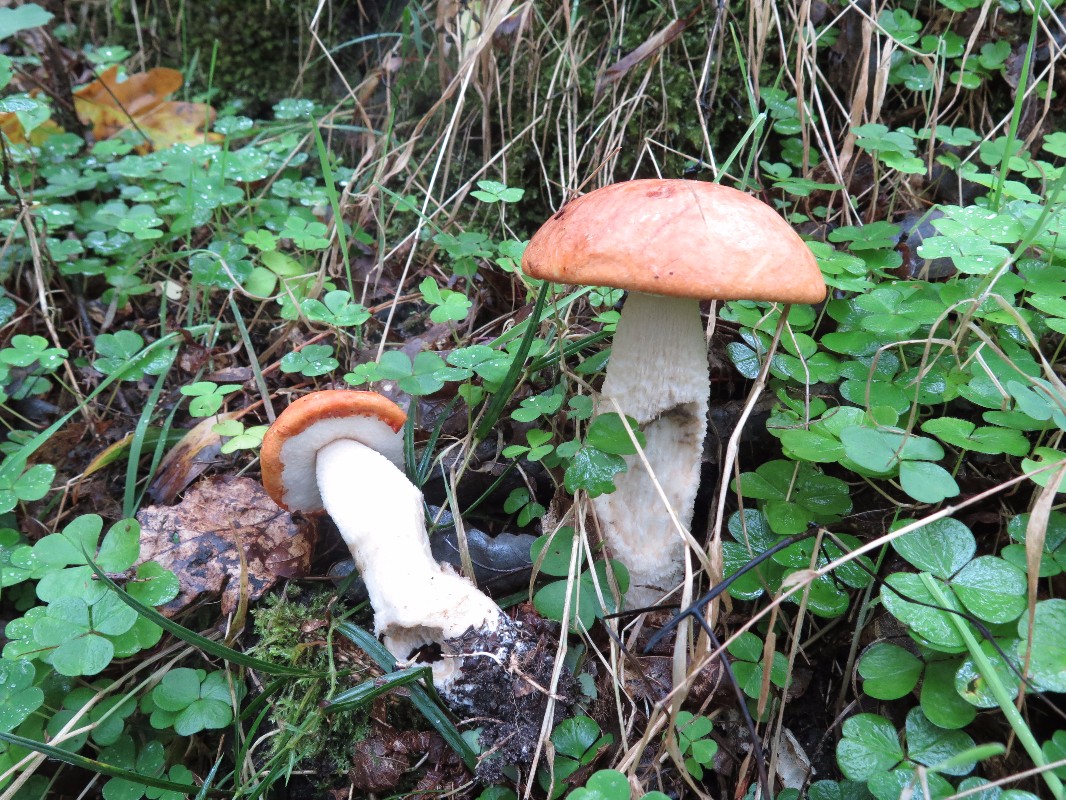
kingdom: Fungi
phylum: Basidiomycota
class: Agaricomycetes
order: Boletales
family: Boletaceae
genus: Leccinum
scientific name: Leccinum
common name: skælrørhat
